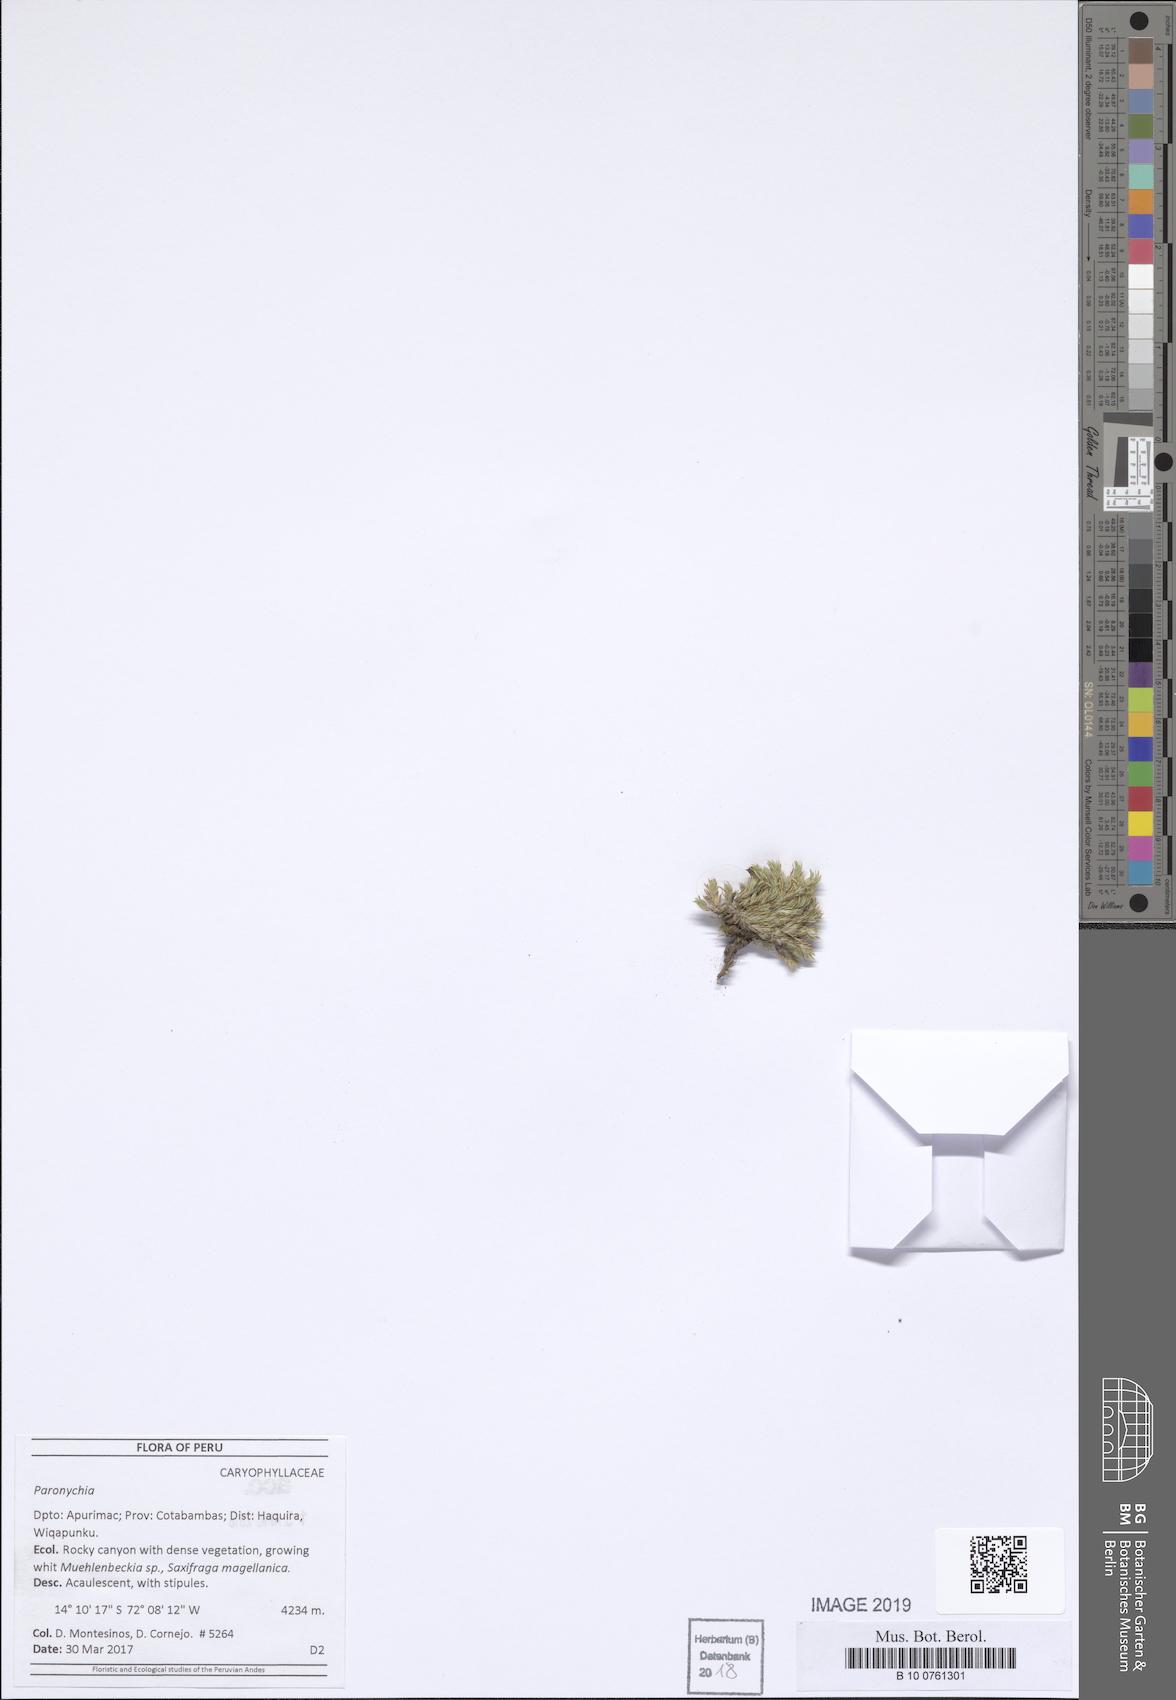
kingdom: Plantae
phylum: Tracheophyta
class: Magnoliopsida
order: Caryophyllales
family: Caryophyllaceae
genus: Paronychia
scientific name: Paronychia peruviana
